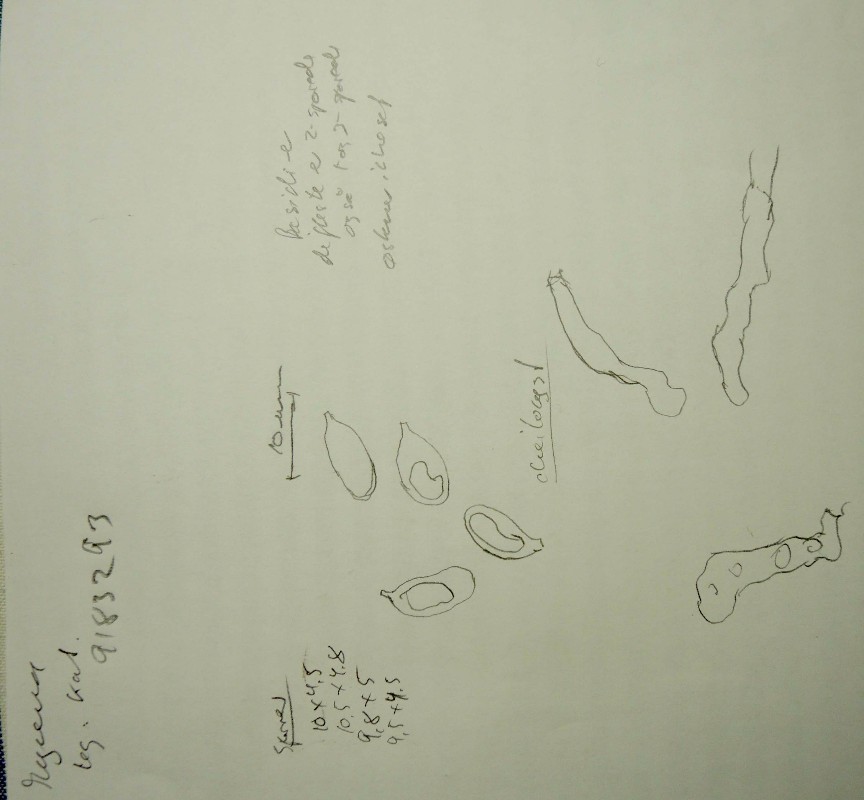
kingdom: Fungi
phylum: Basidiomycota
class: Agaricomycetes
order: Agaricales
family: Porotheleaceae
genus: Phloeomana
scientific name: Phloeomana speirea
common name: kvist-huesvamp
